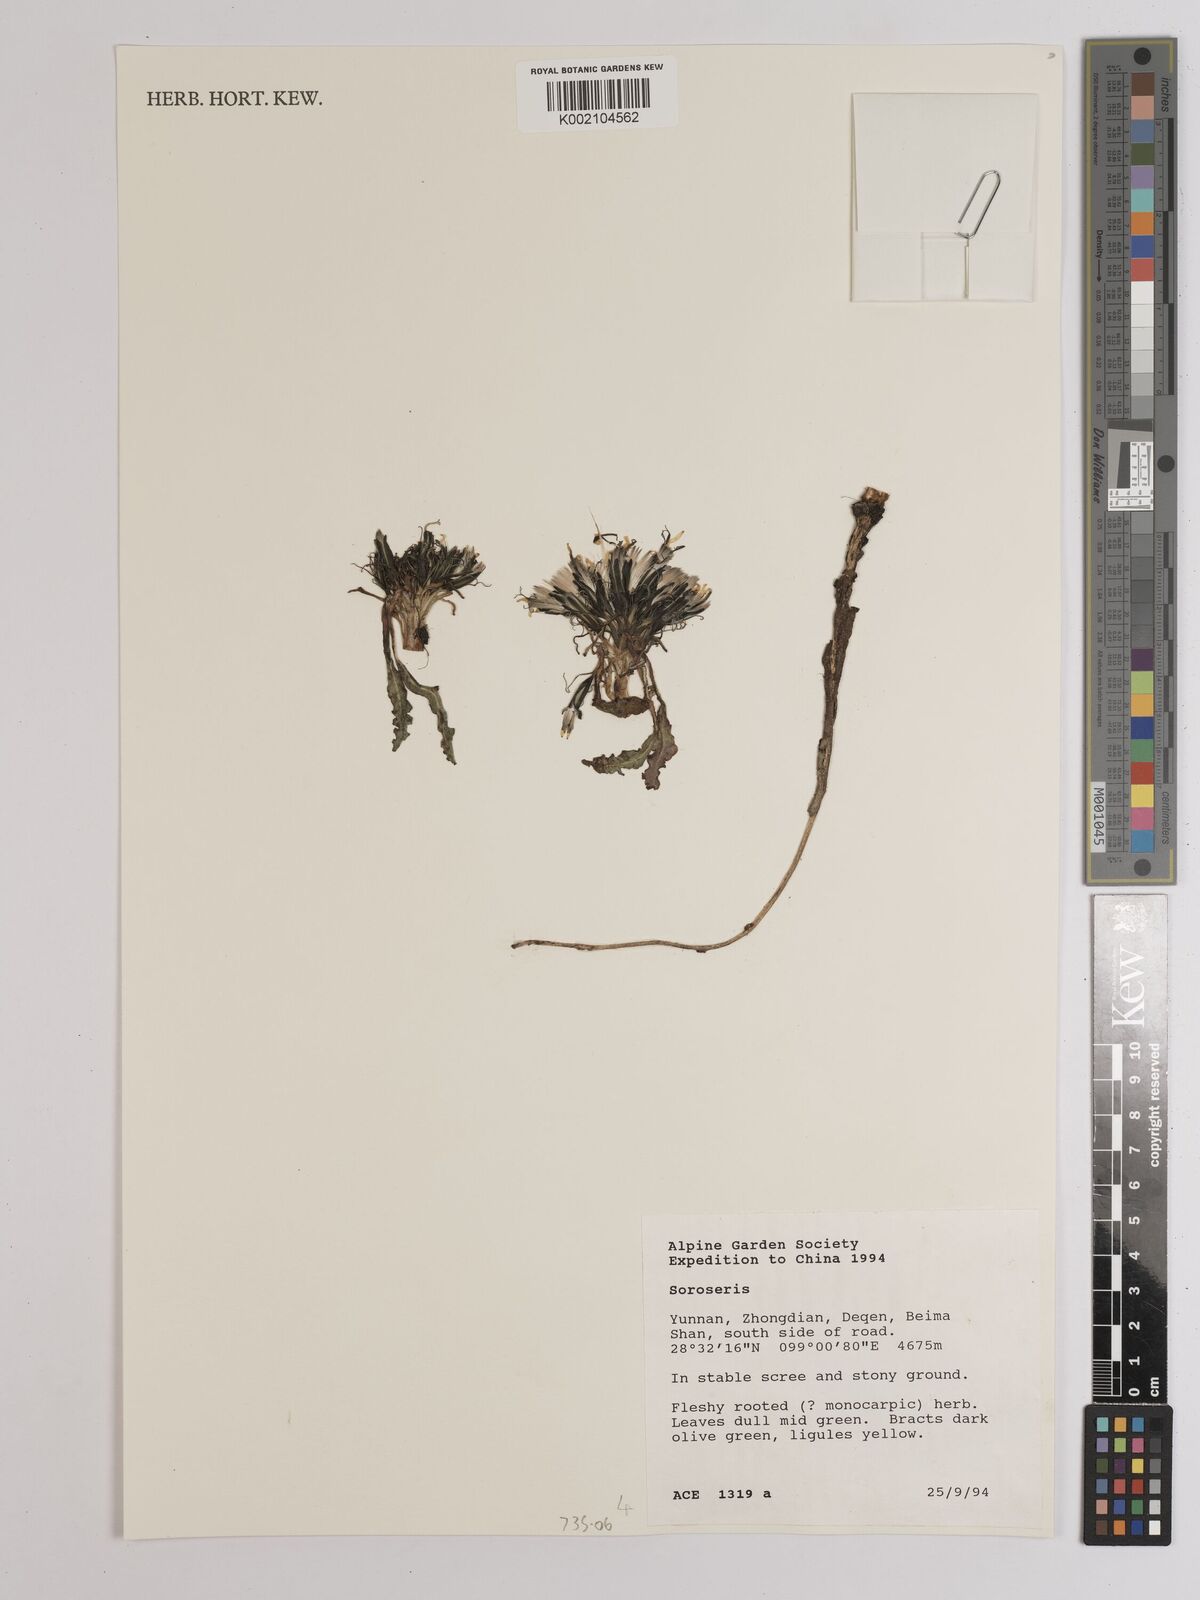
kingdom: Plantae
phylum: Tracheophyta
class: Magnoliopsida
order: Asterales
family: Asteraceae
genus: Soroseris
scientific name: Soroseris
